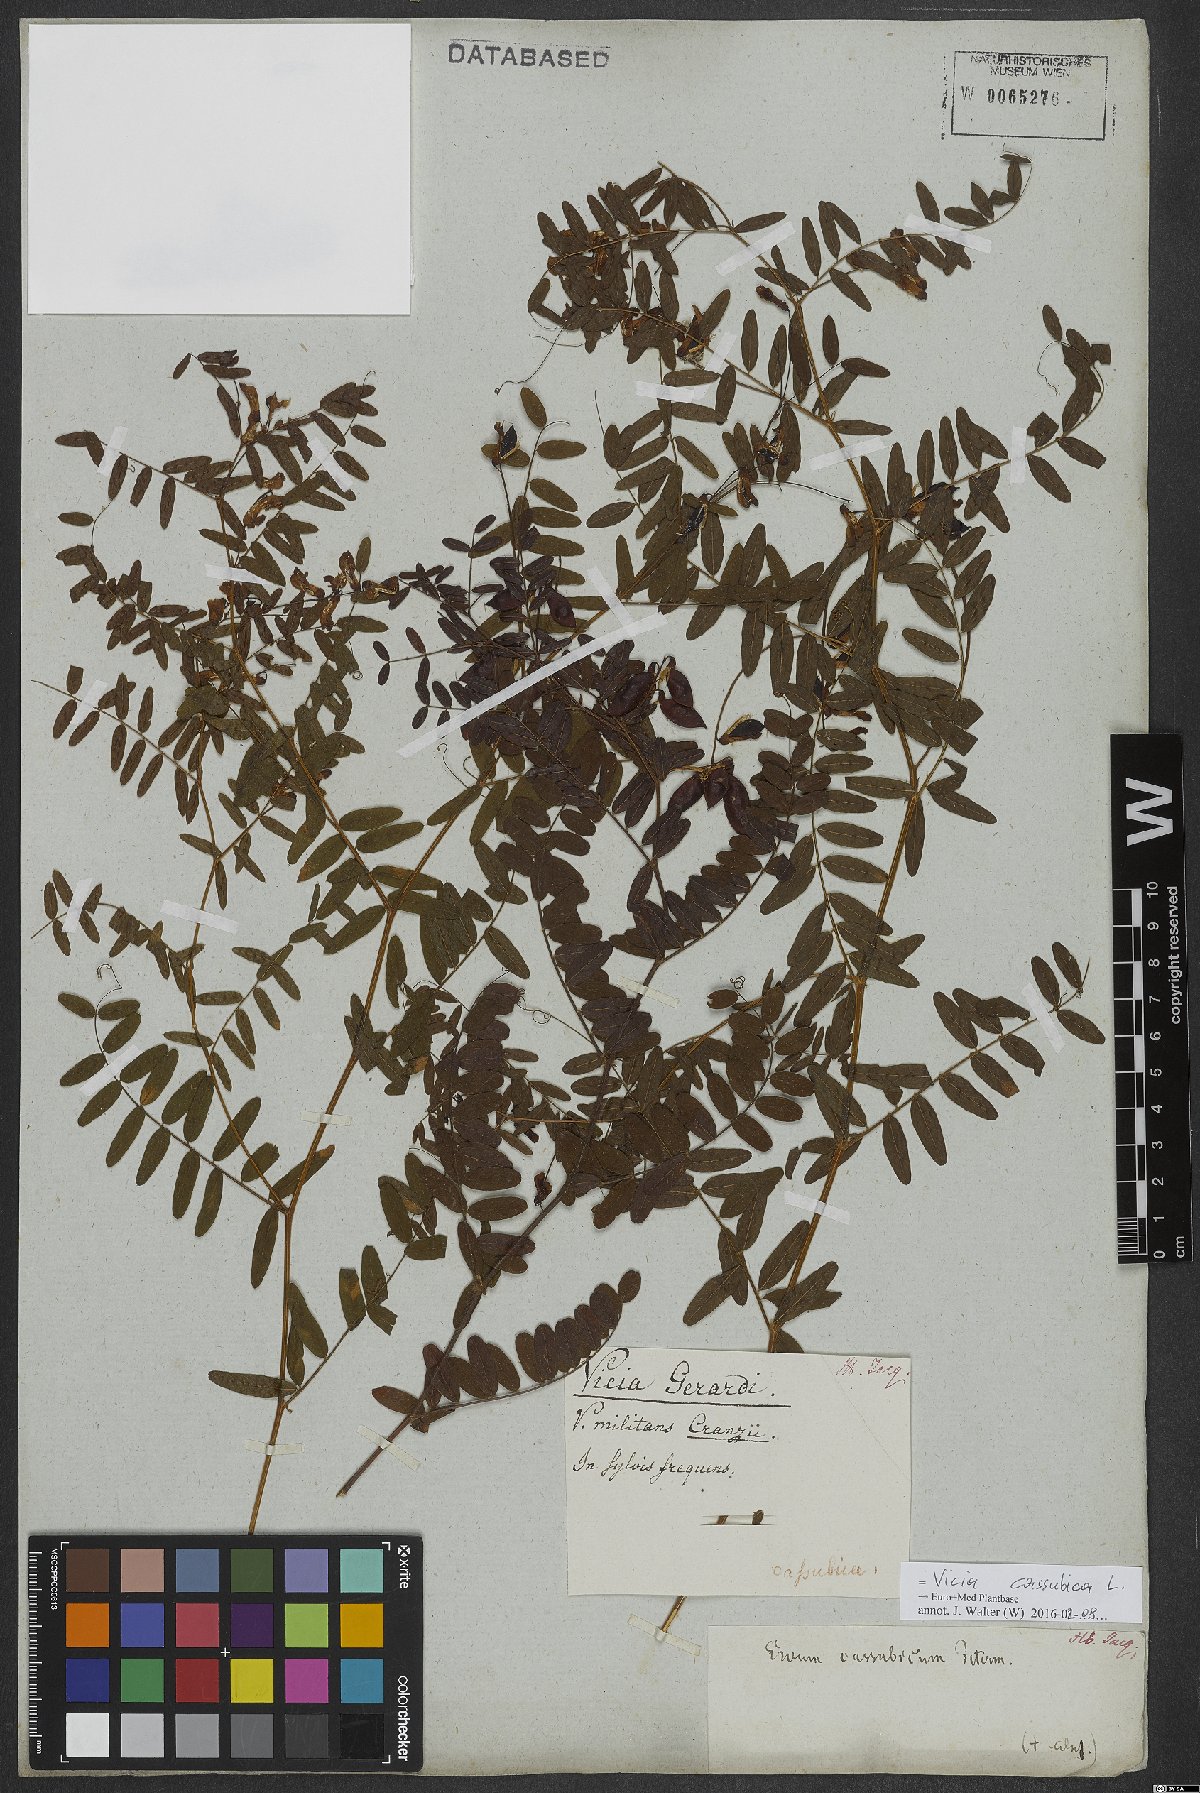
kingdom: Plantae
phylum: Tracheophyta
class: Magnoliopsida
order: Fabales
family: Fabaceae
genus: Vicia
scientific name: Vicia cassubica
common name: Danzig vetch
